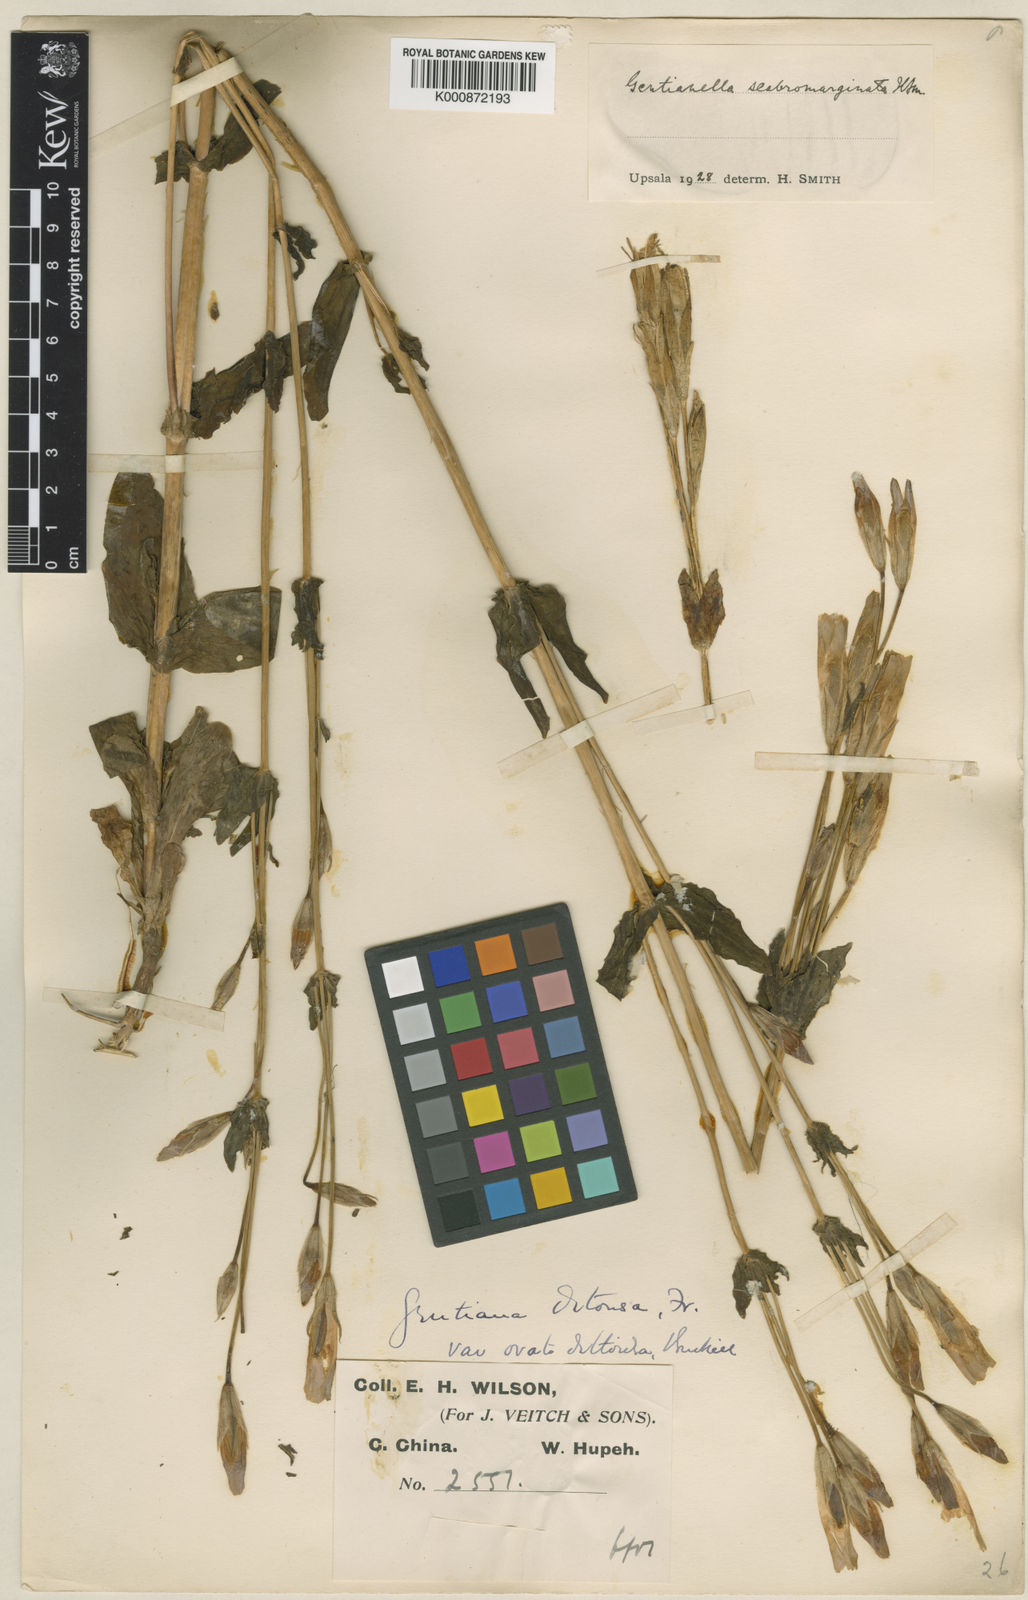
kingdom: Plantae
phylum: Tracheophyta
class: Magnoliopsida
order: Gentianales
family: Gentianaceae
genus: Gentianopsis
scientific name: Gentianopsis detonsa
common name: Fringed-gentian
